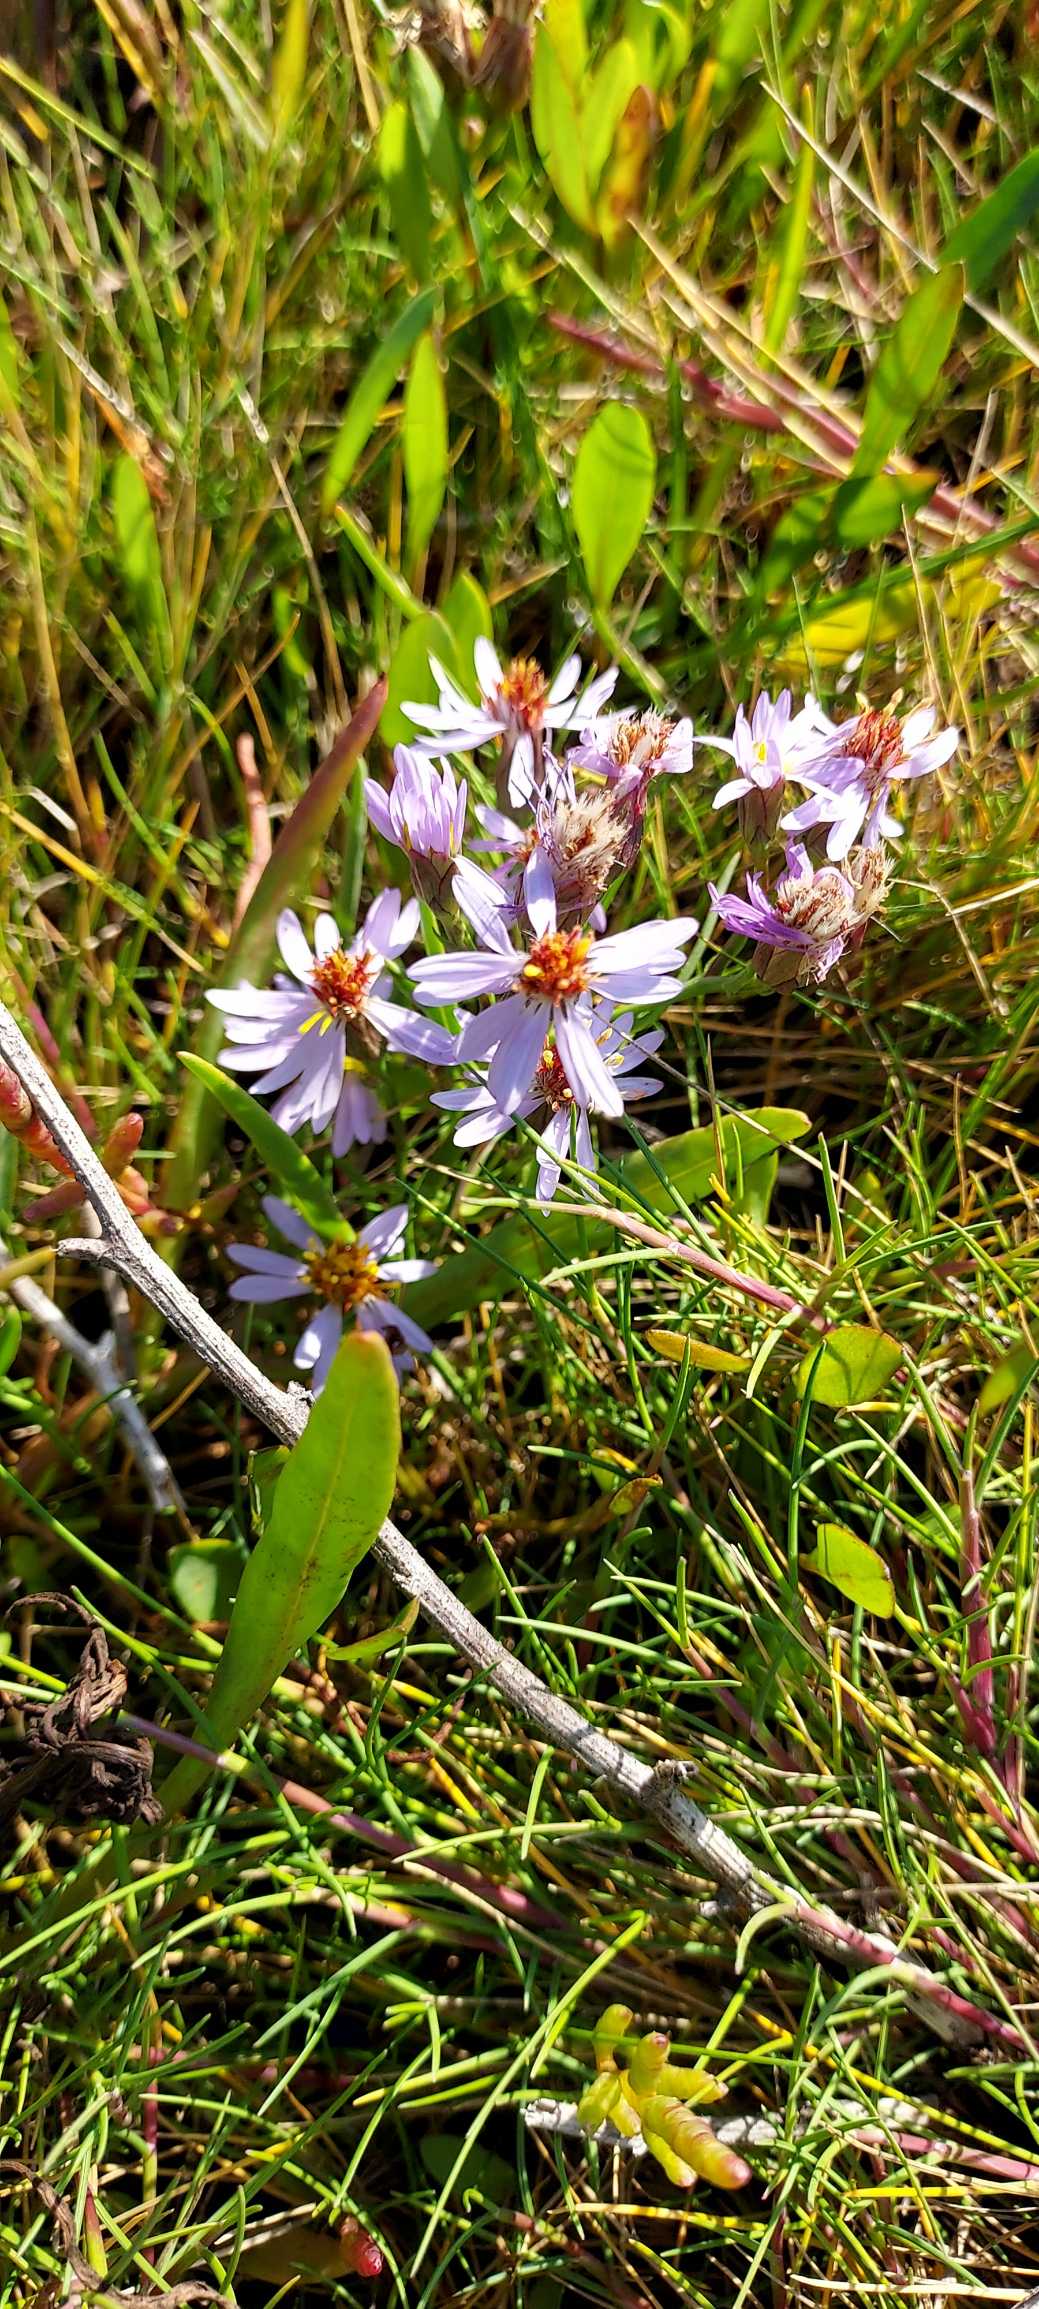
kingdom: Plantae
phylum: Tracheophyta
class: Magnoliopsida
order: Asterales
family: Asteraceae
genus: Tripolium
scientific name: Tripolium pannonicum
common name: Strandasters
